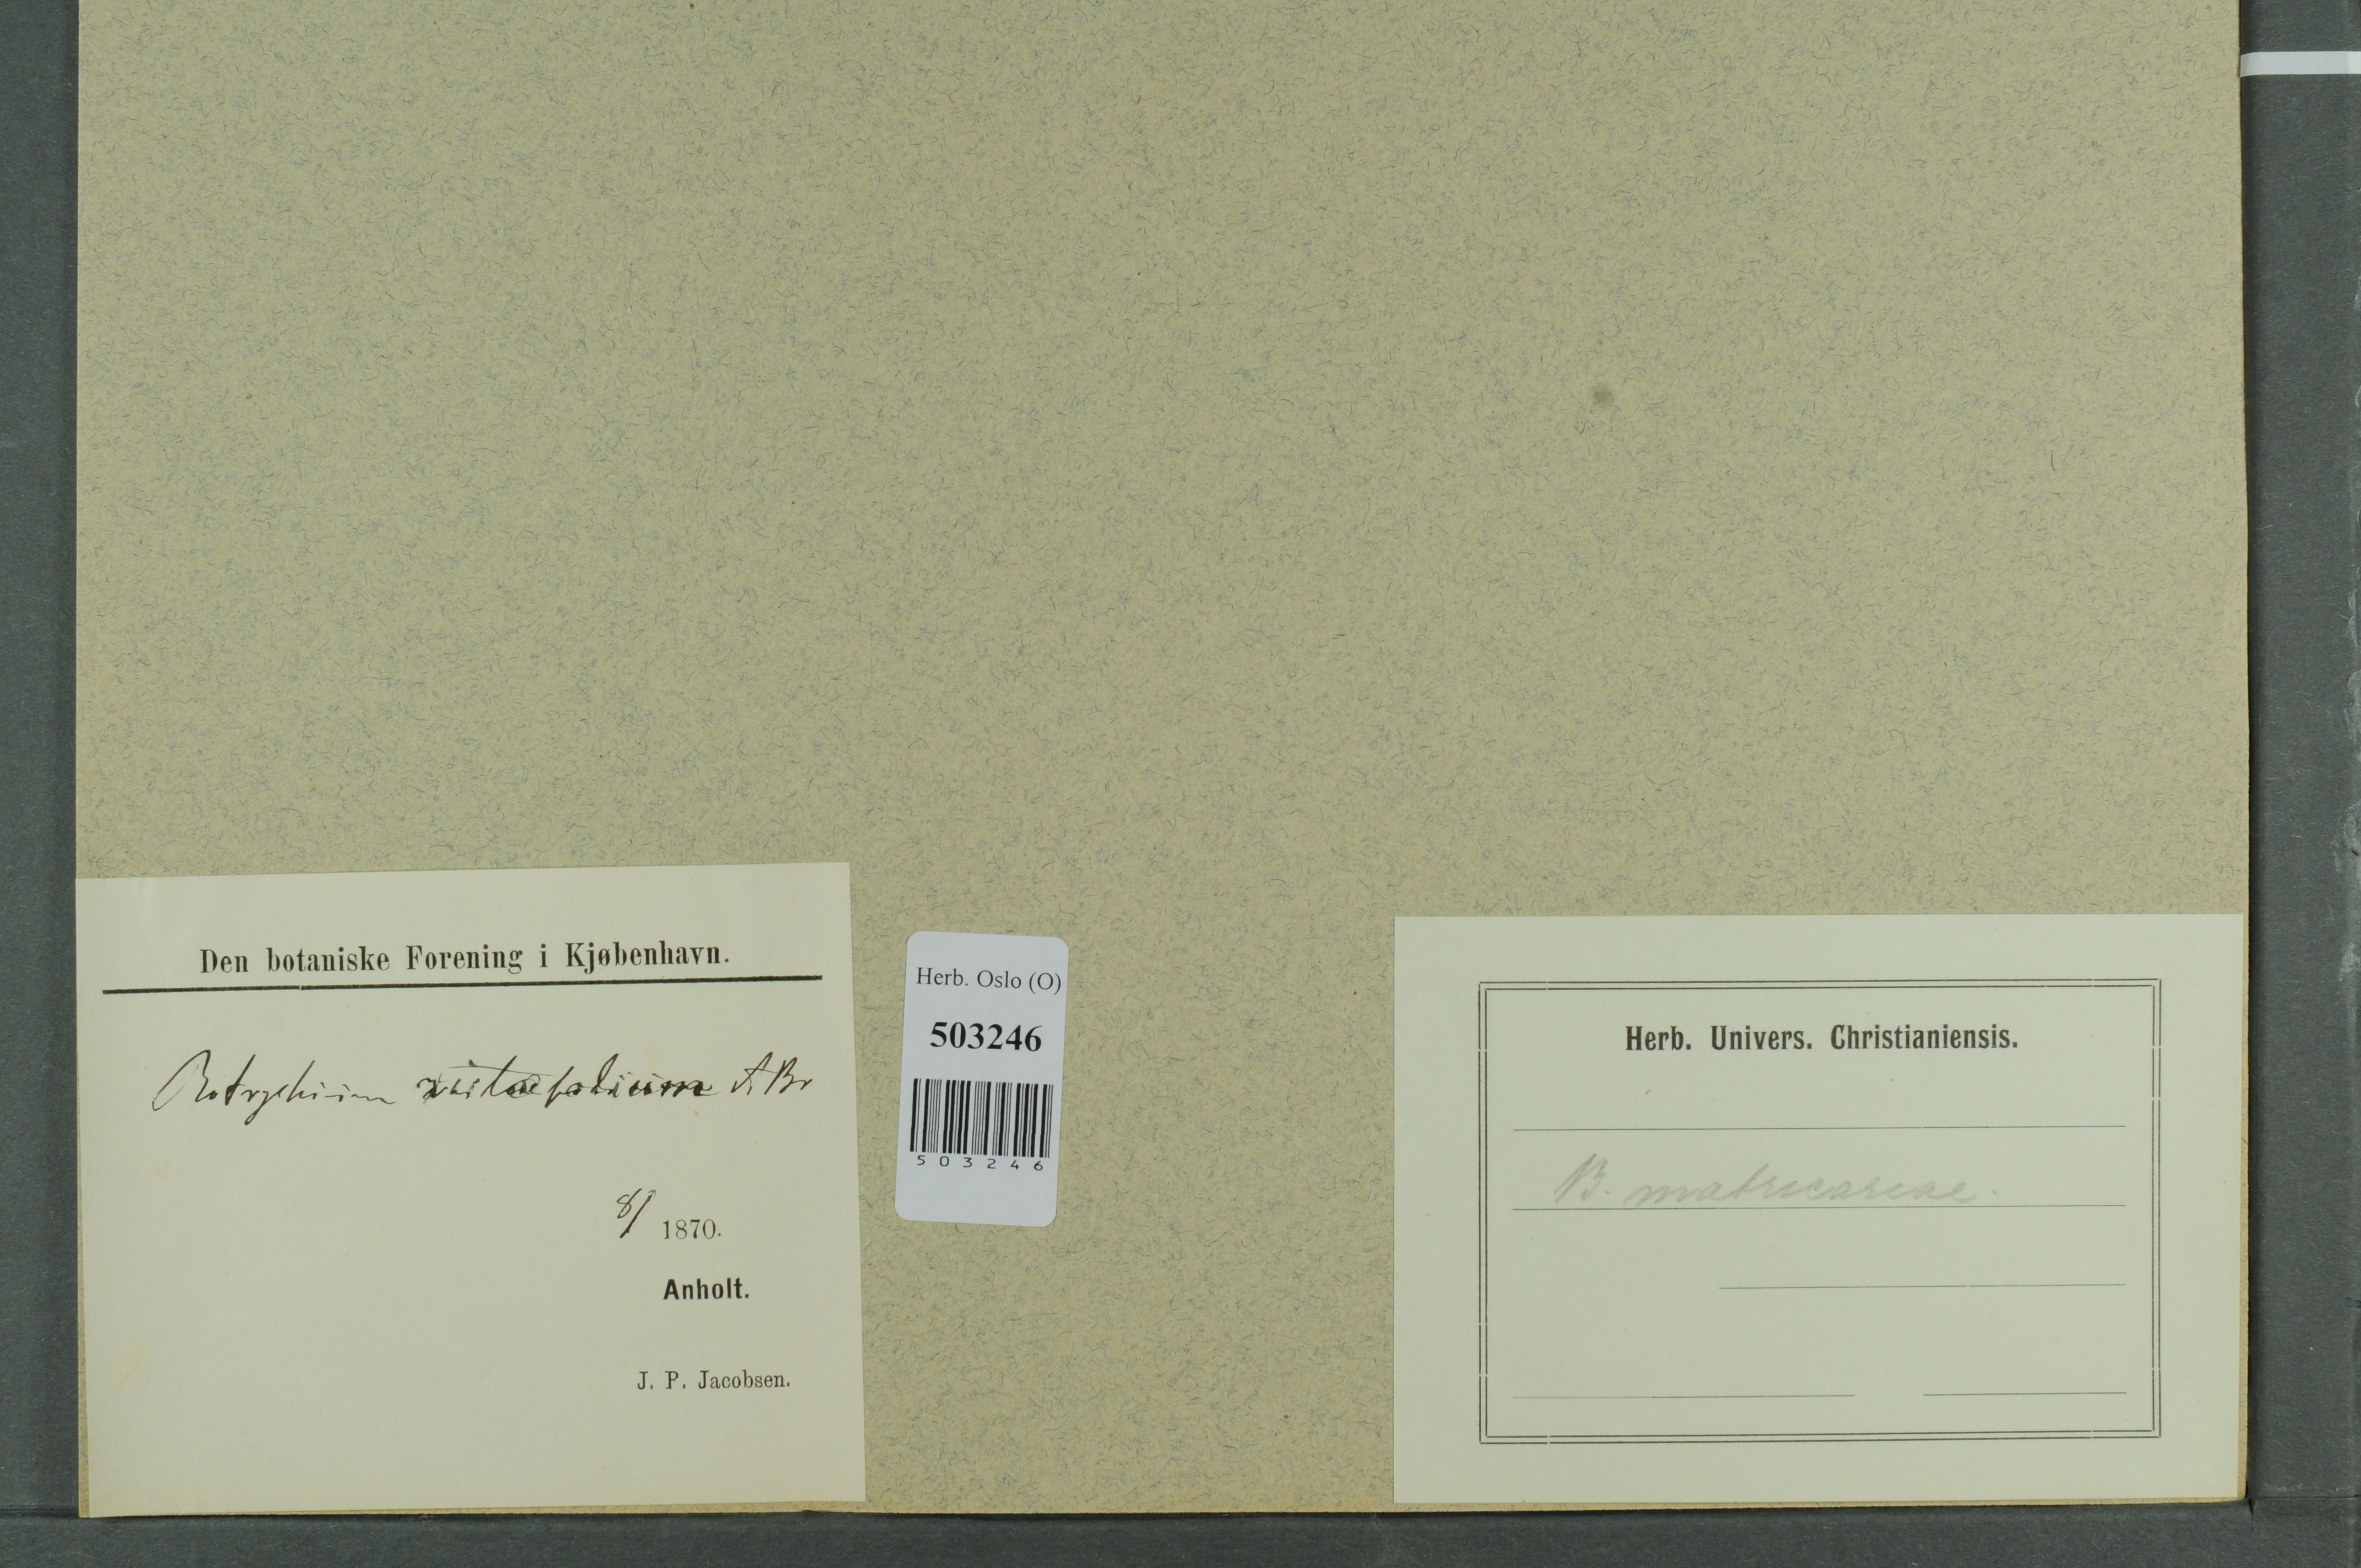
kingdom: Plantae
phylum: Tracheophyta
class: Polypodiopsida
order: Ophioglossales
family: Ophioglossaceae
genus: Sceptridium
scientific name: Sceptridium multifidum
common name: Leathery grape fern
